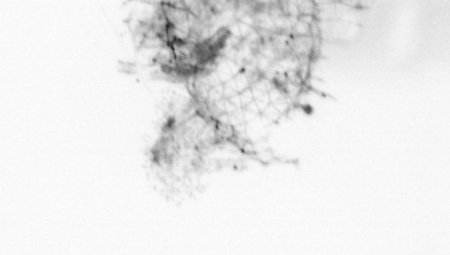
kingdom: Animalia
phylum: Chordata
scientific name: Chordata
